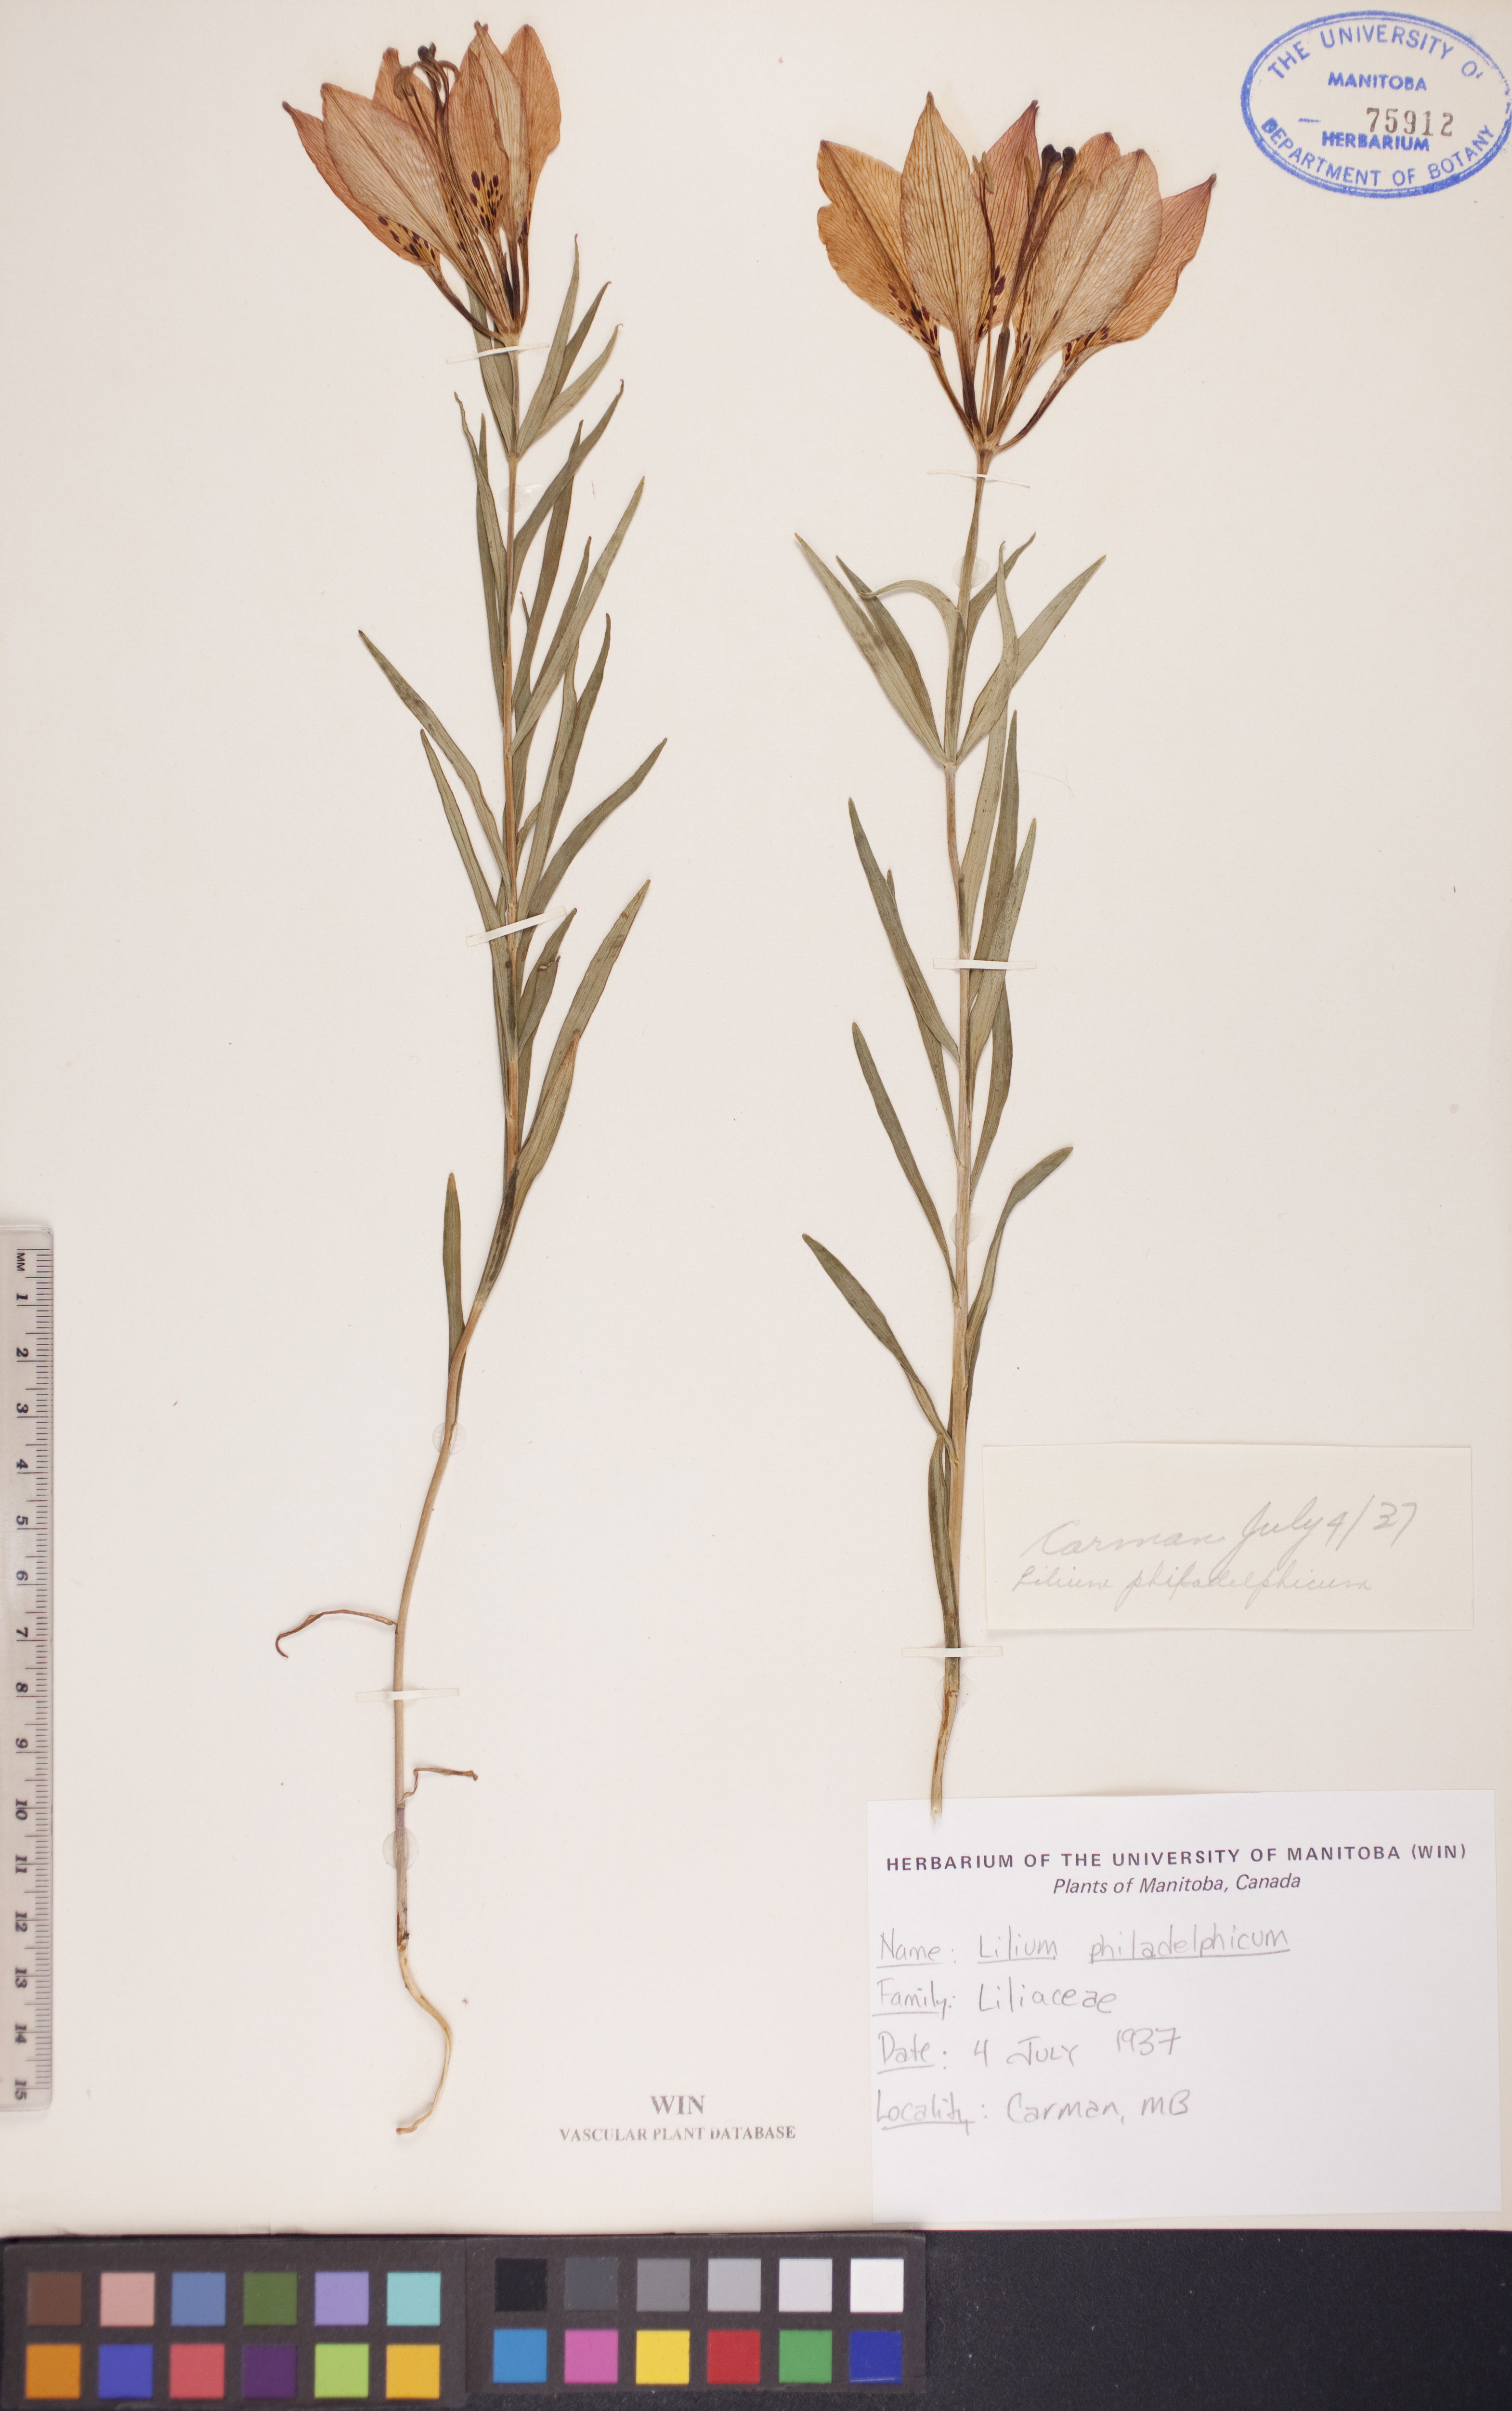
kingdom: Plantae
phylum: Tracheophyta
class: Liliopsida
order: Liliales
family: Liliaceae
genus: Lilium
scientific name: Lilium philadelphicum
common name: Red lily
